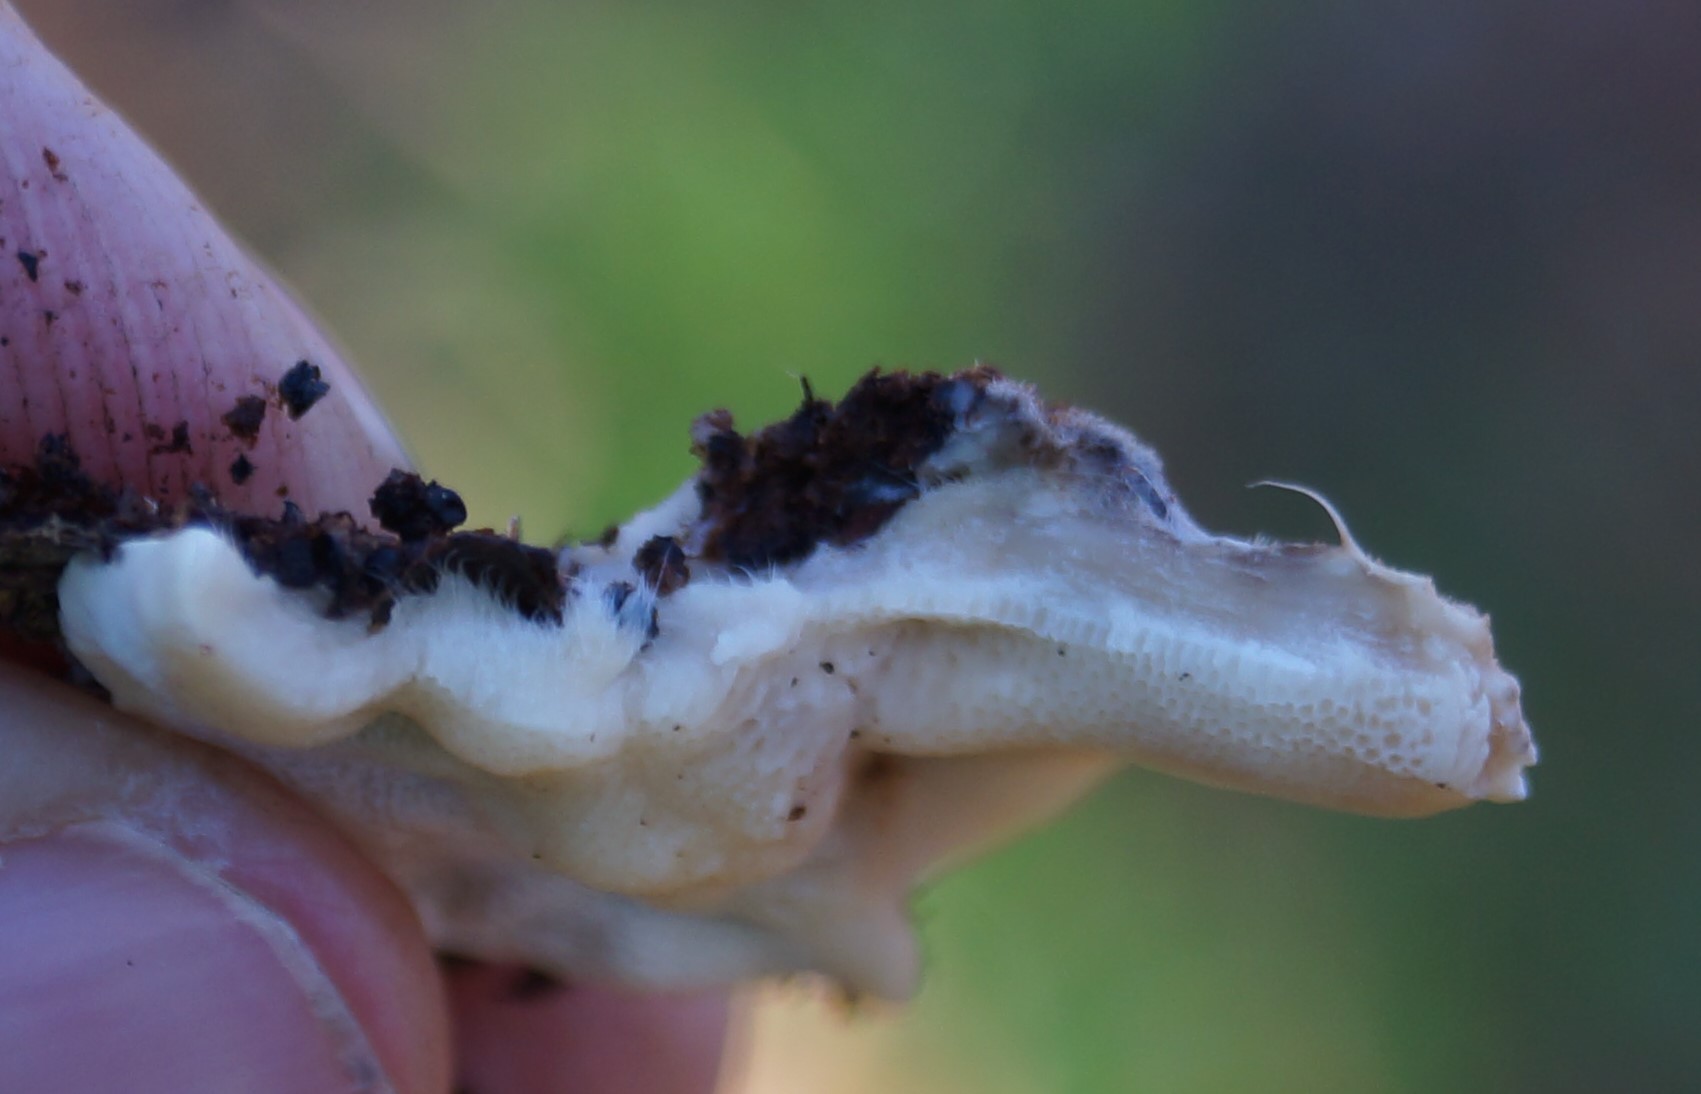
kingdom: Fungi
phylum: Basidiomycota
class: Agaricomycetes
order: Polyporales
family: Polyporaceae
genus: Trametes
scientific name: Trametes versicolor
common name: broget læderporesvamp
